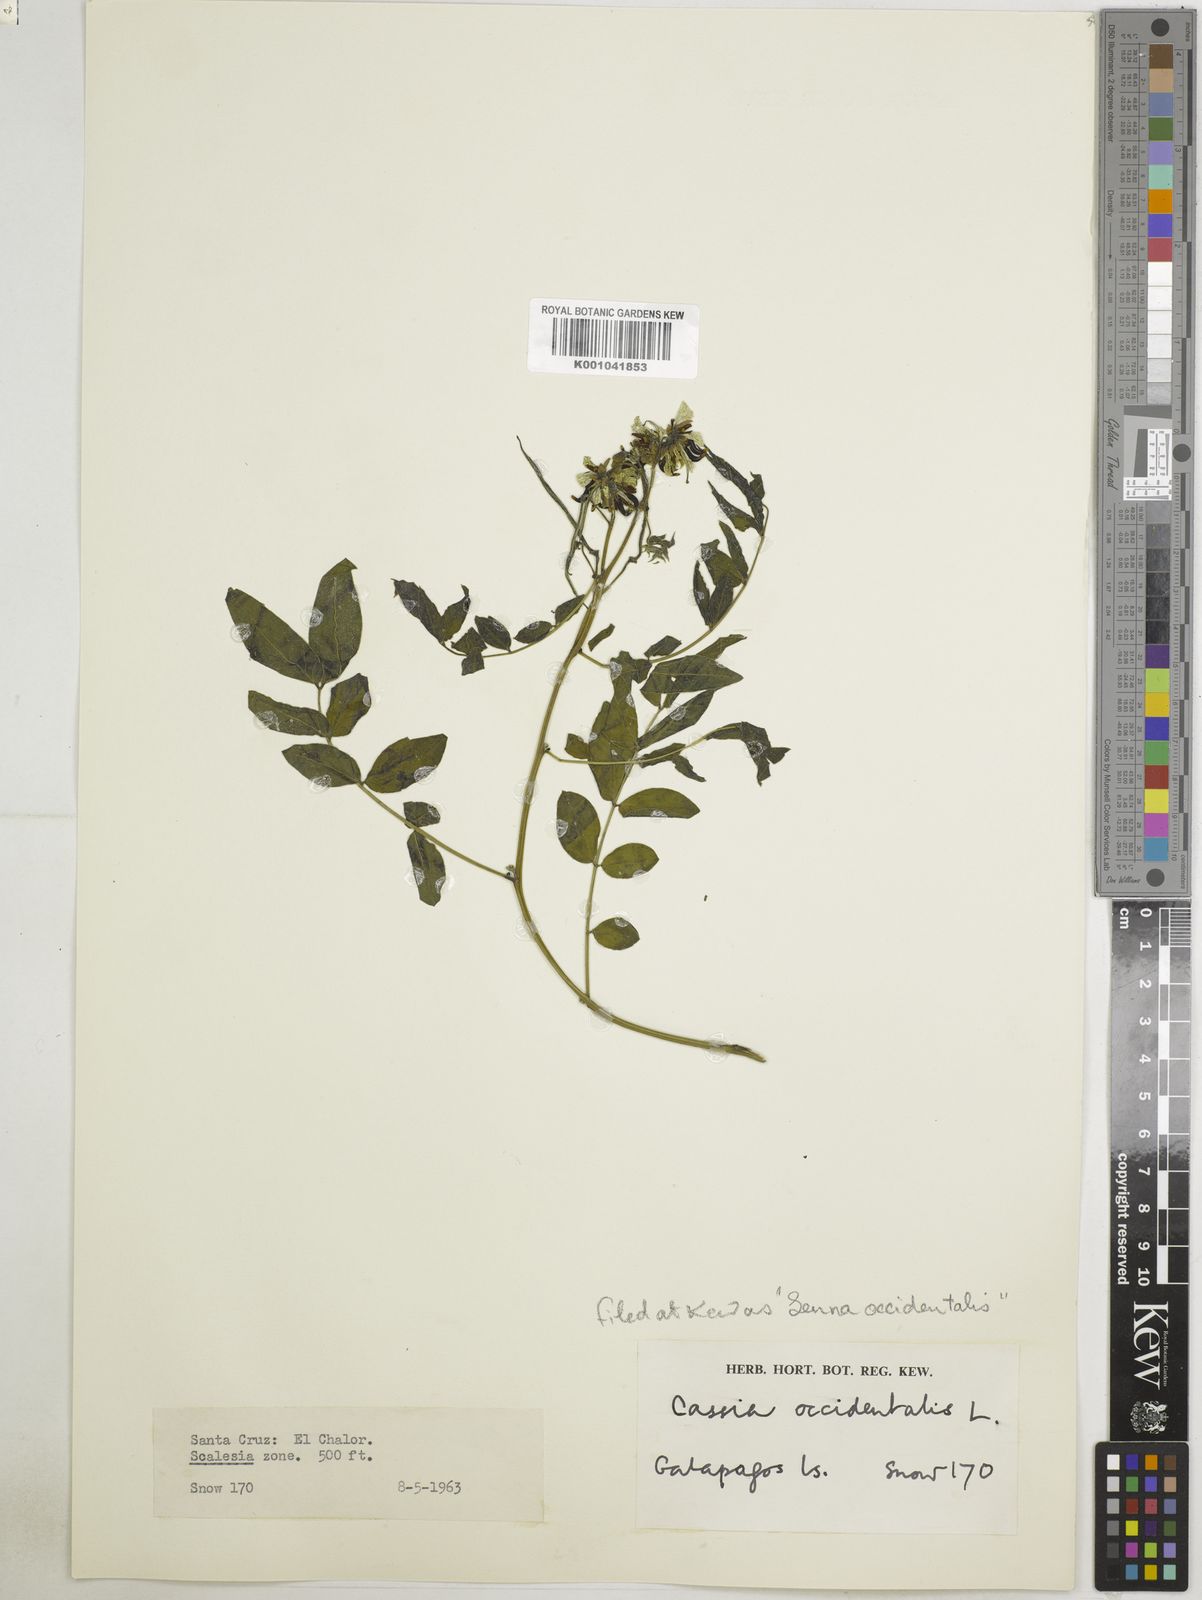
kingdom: Plantae
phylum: Tracheophyta
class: Magnoliopsida
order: Fabales
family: Fabaceae
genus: Senna
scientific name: Senna occidentalis
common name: Septicweed
